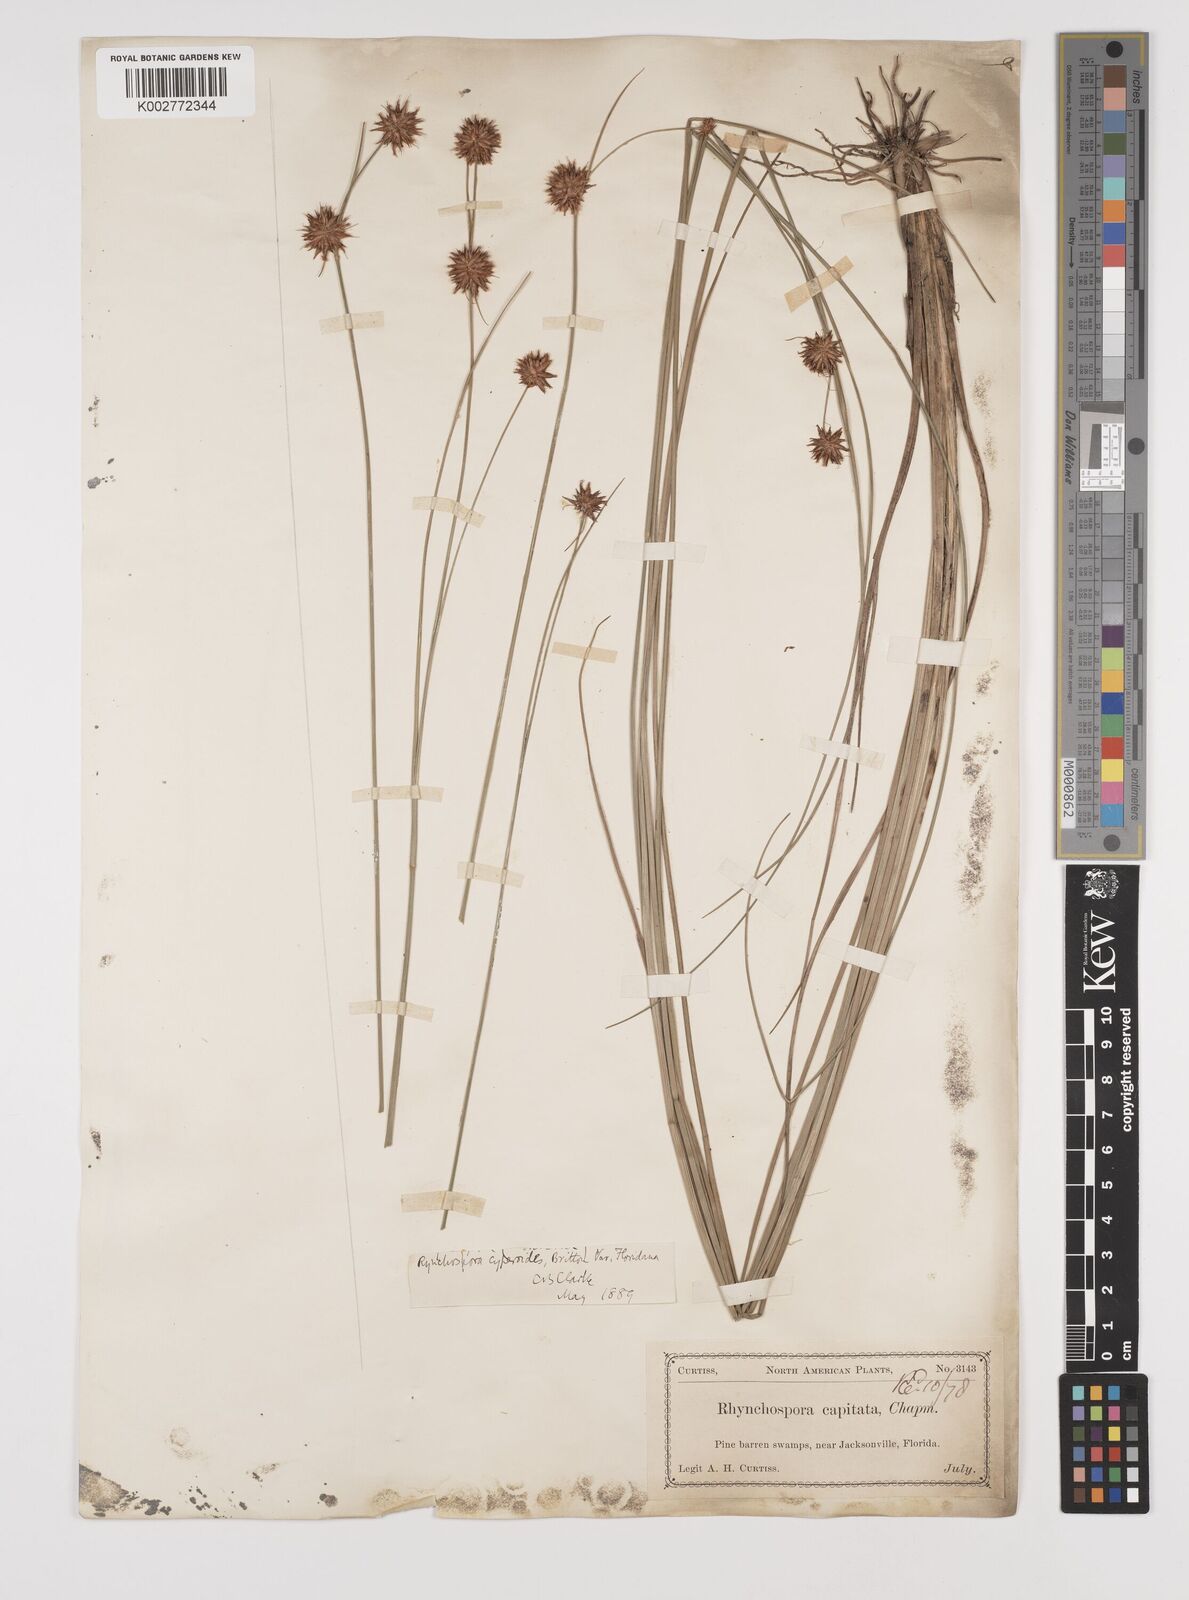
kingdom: Plantae
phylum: Tracheophyta
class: Liliopsida
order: Poales
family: Cyperaceae
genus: Rhynchospora
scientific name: Rhynchospora holoschoenoides
